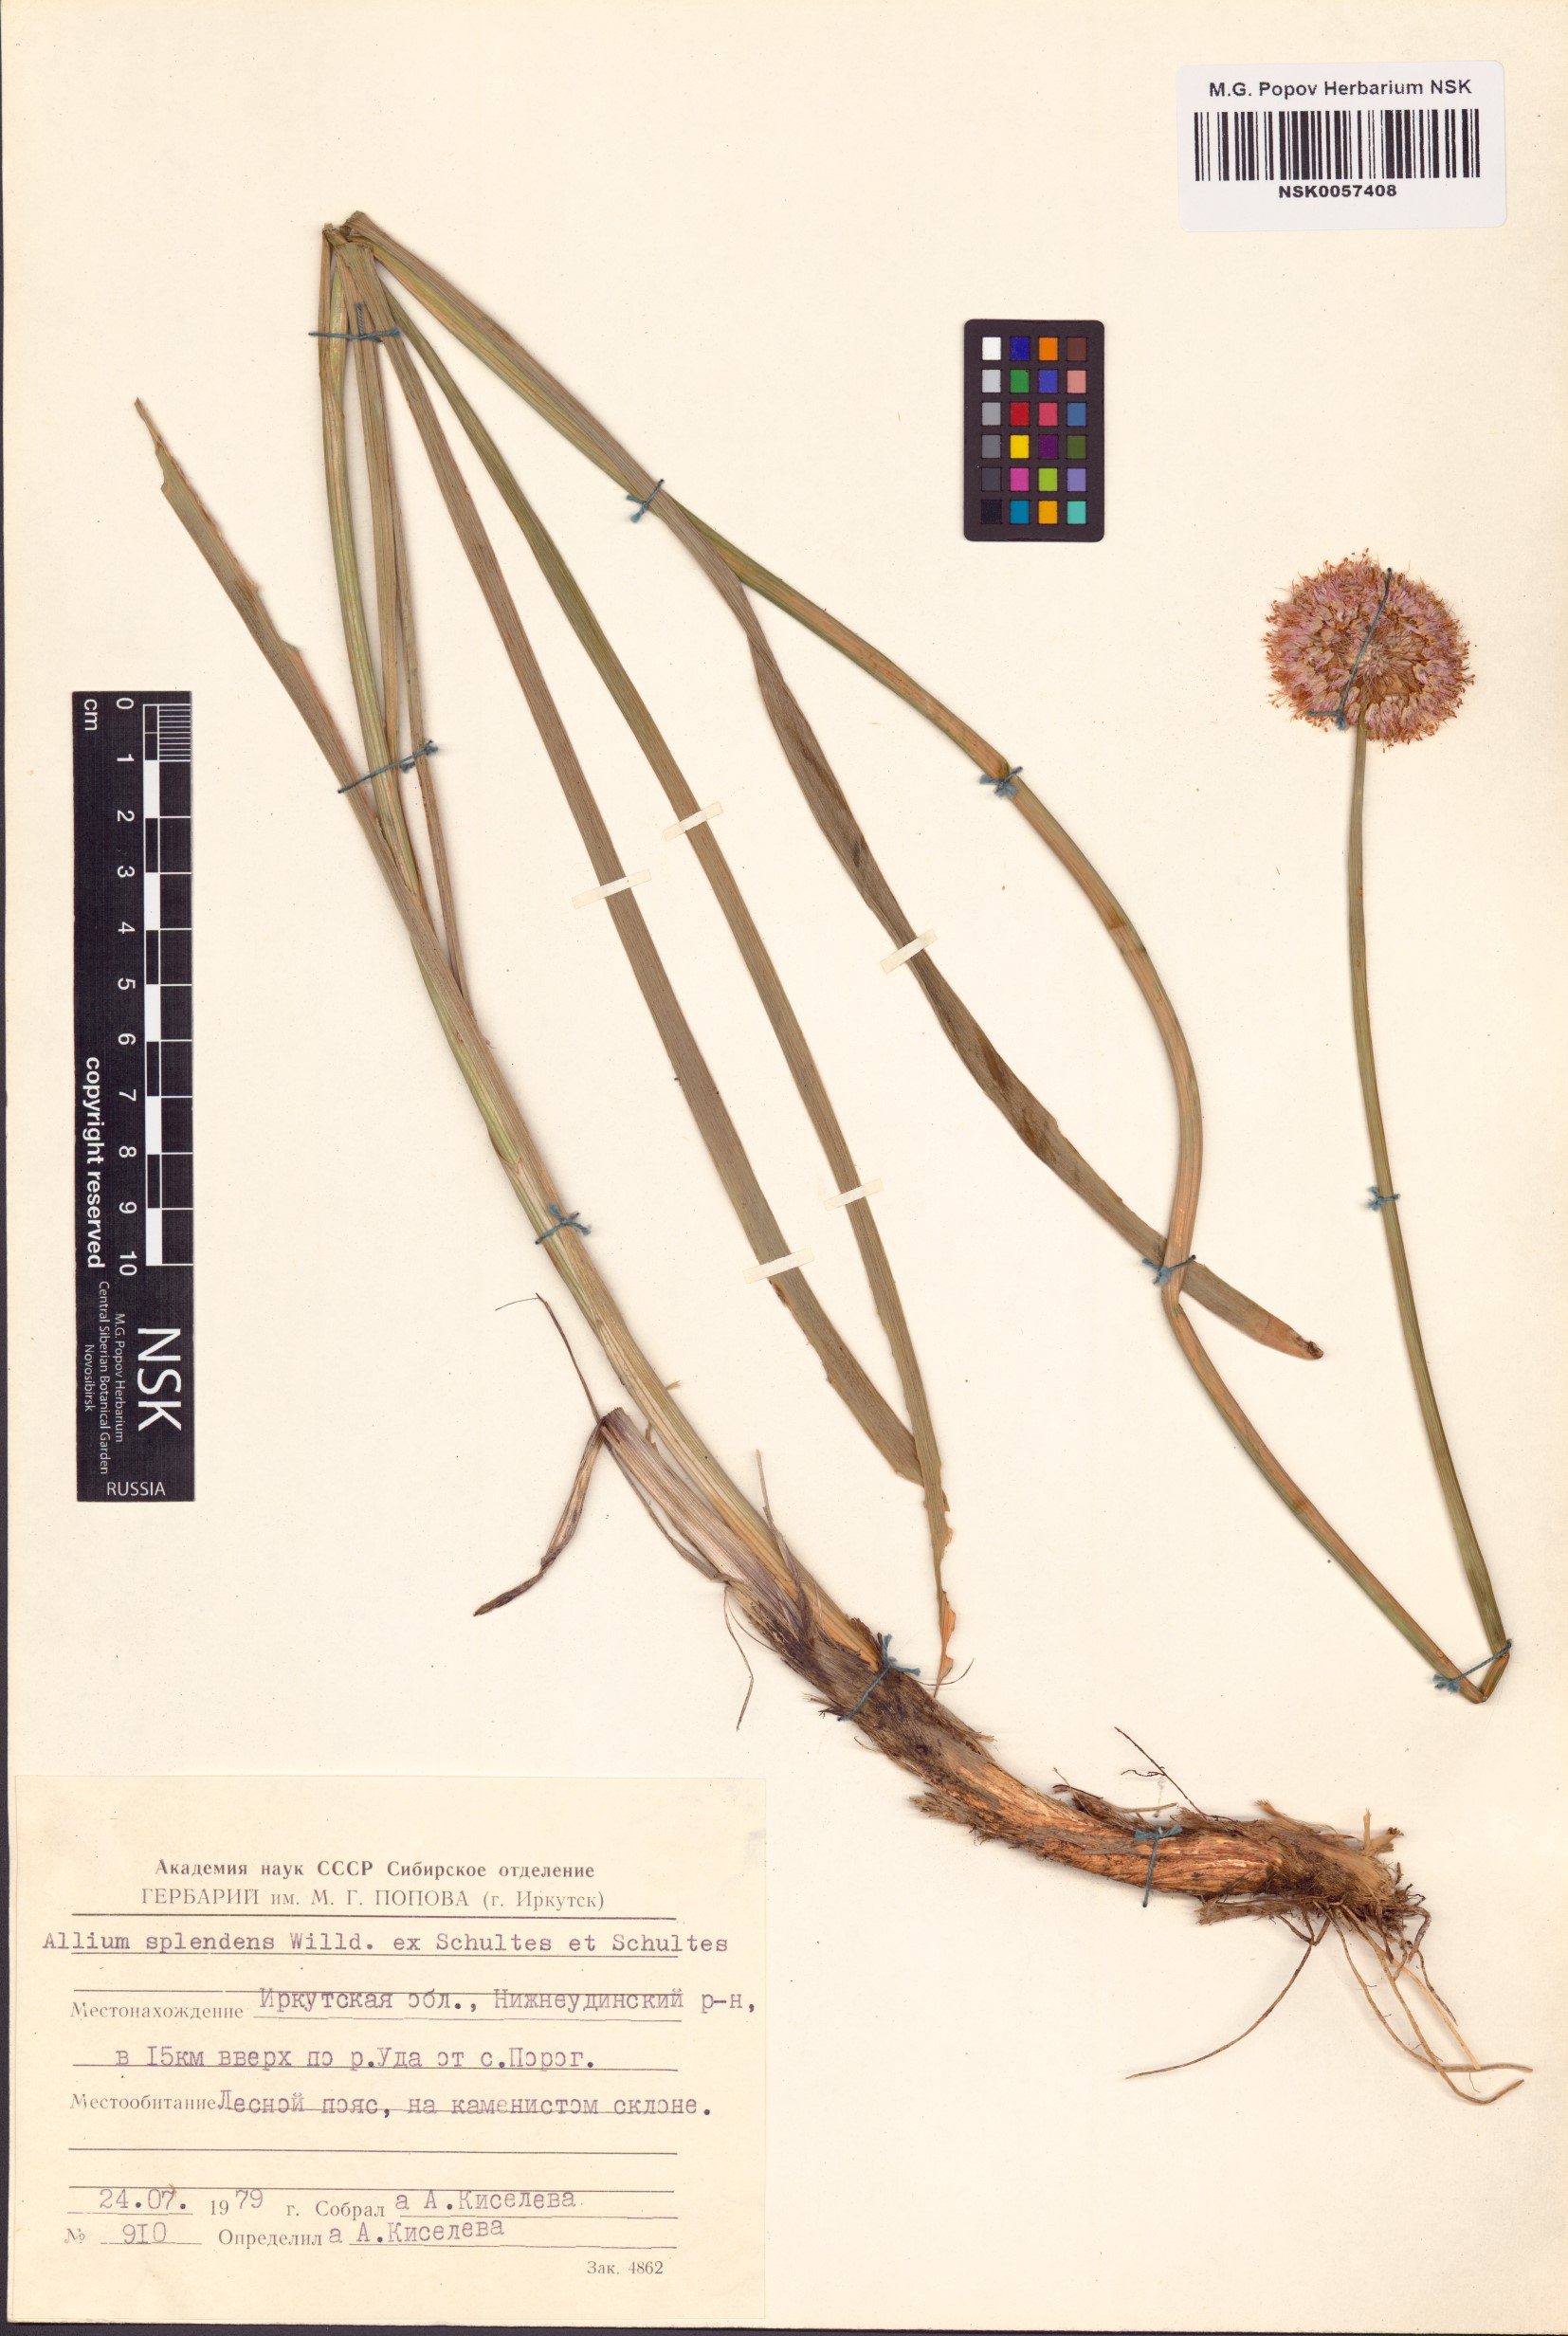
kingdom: Plantae
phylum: Tracheophyta
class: Liliopsida
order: Asparagales
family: Amaryllidaceae
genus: Allium
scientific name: Allium splendens
